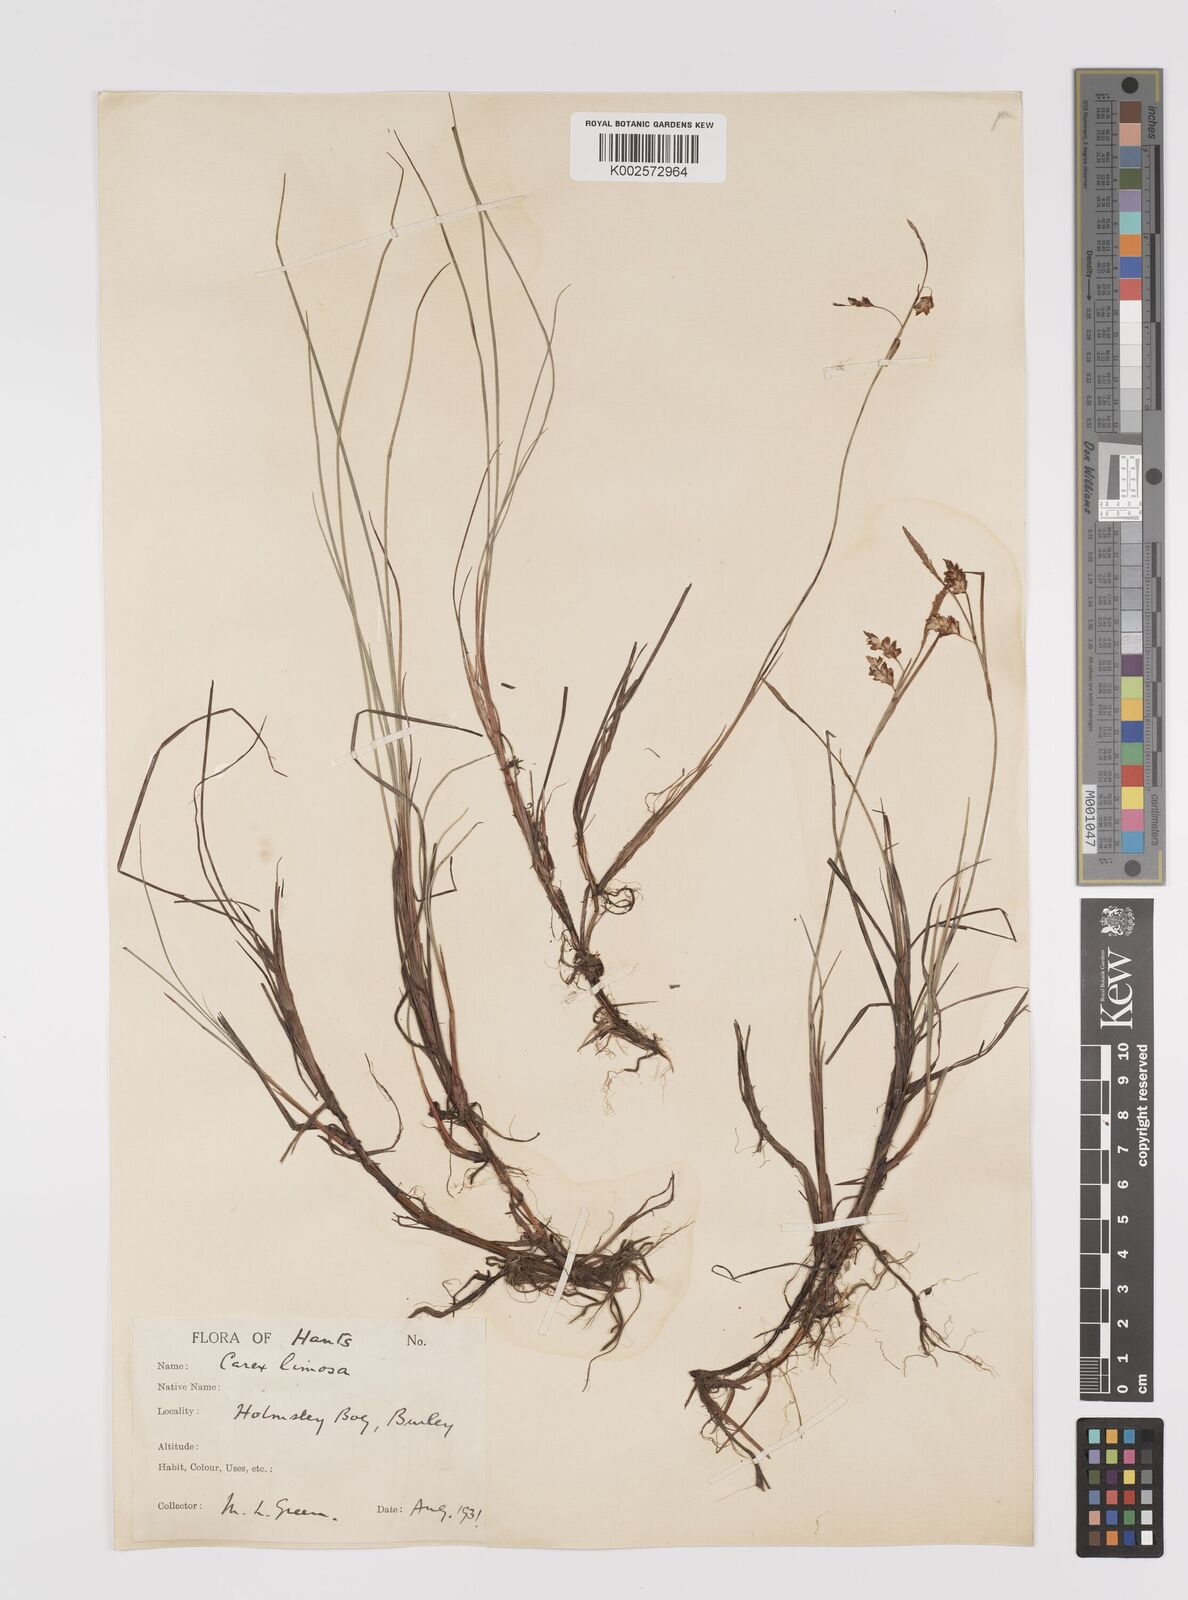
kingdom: Plantae
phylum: Tracheophyta
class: Liliopsida
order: Poales
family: Cyperaceae
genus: Carex
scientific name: Carex limosa
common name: Bog sedge
